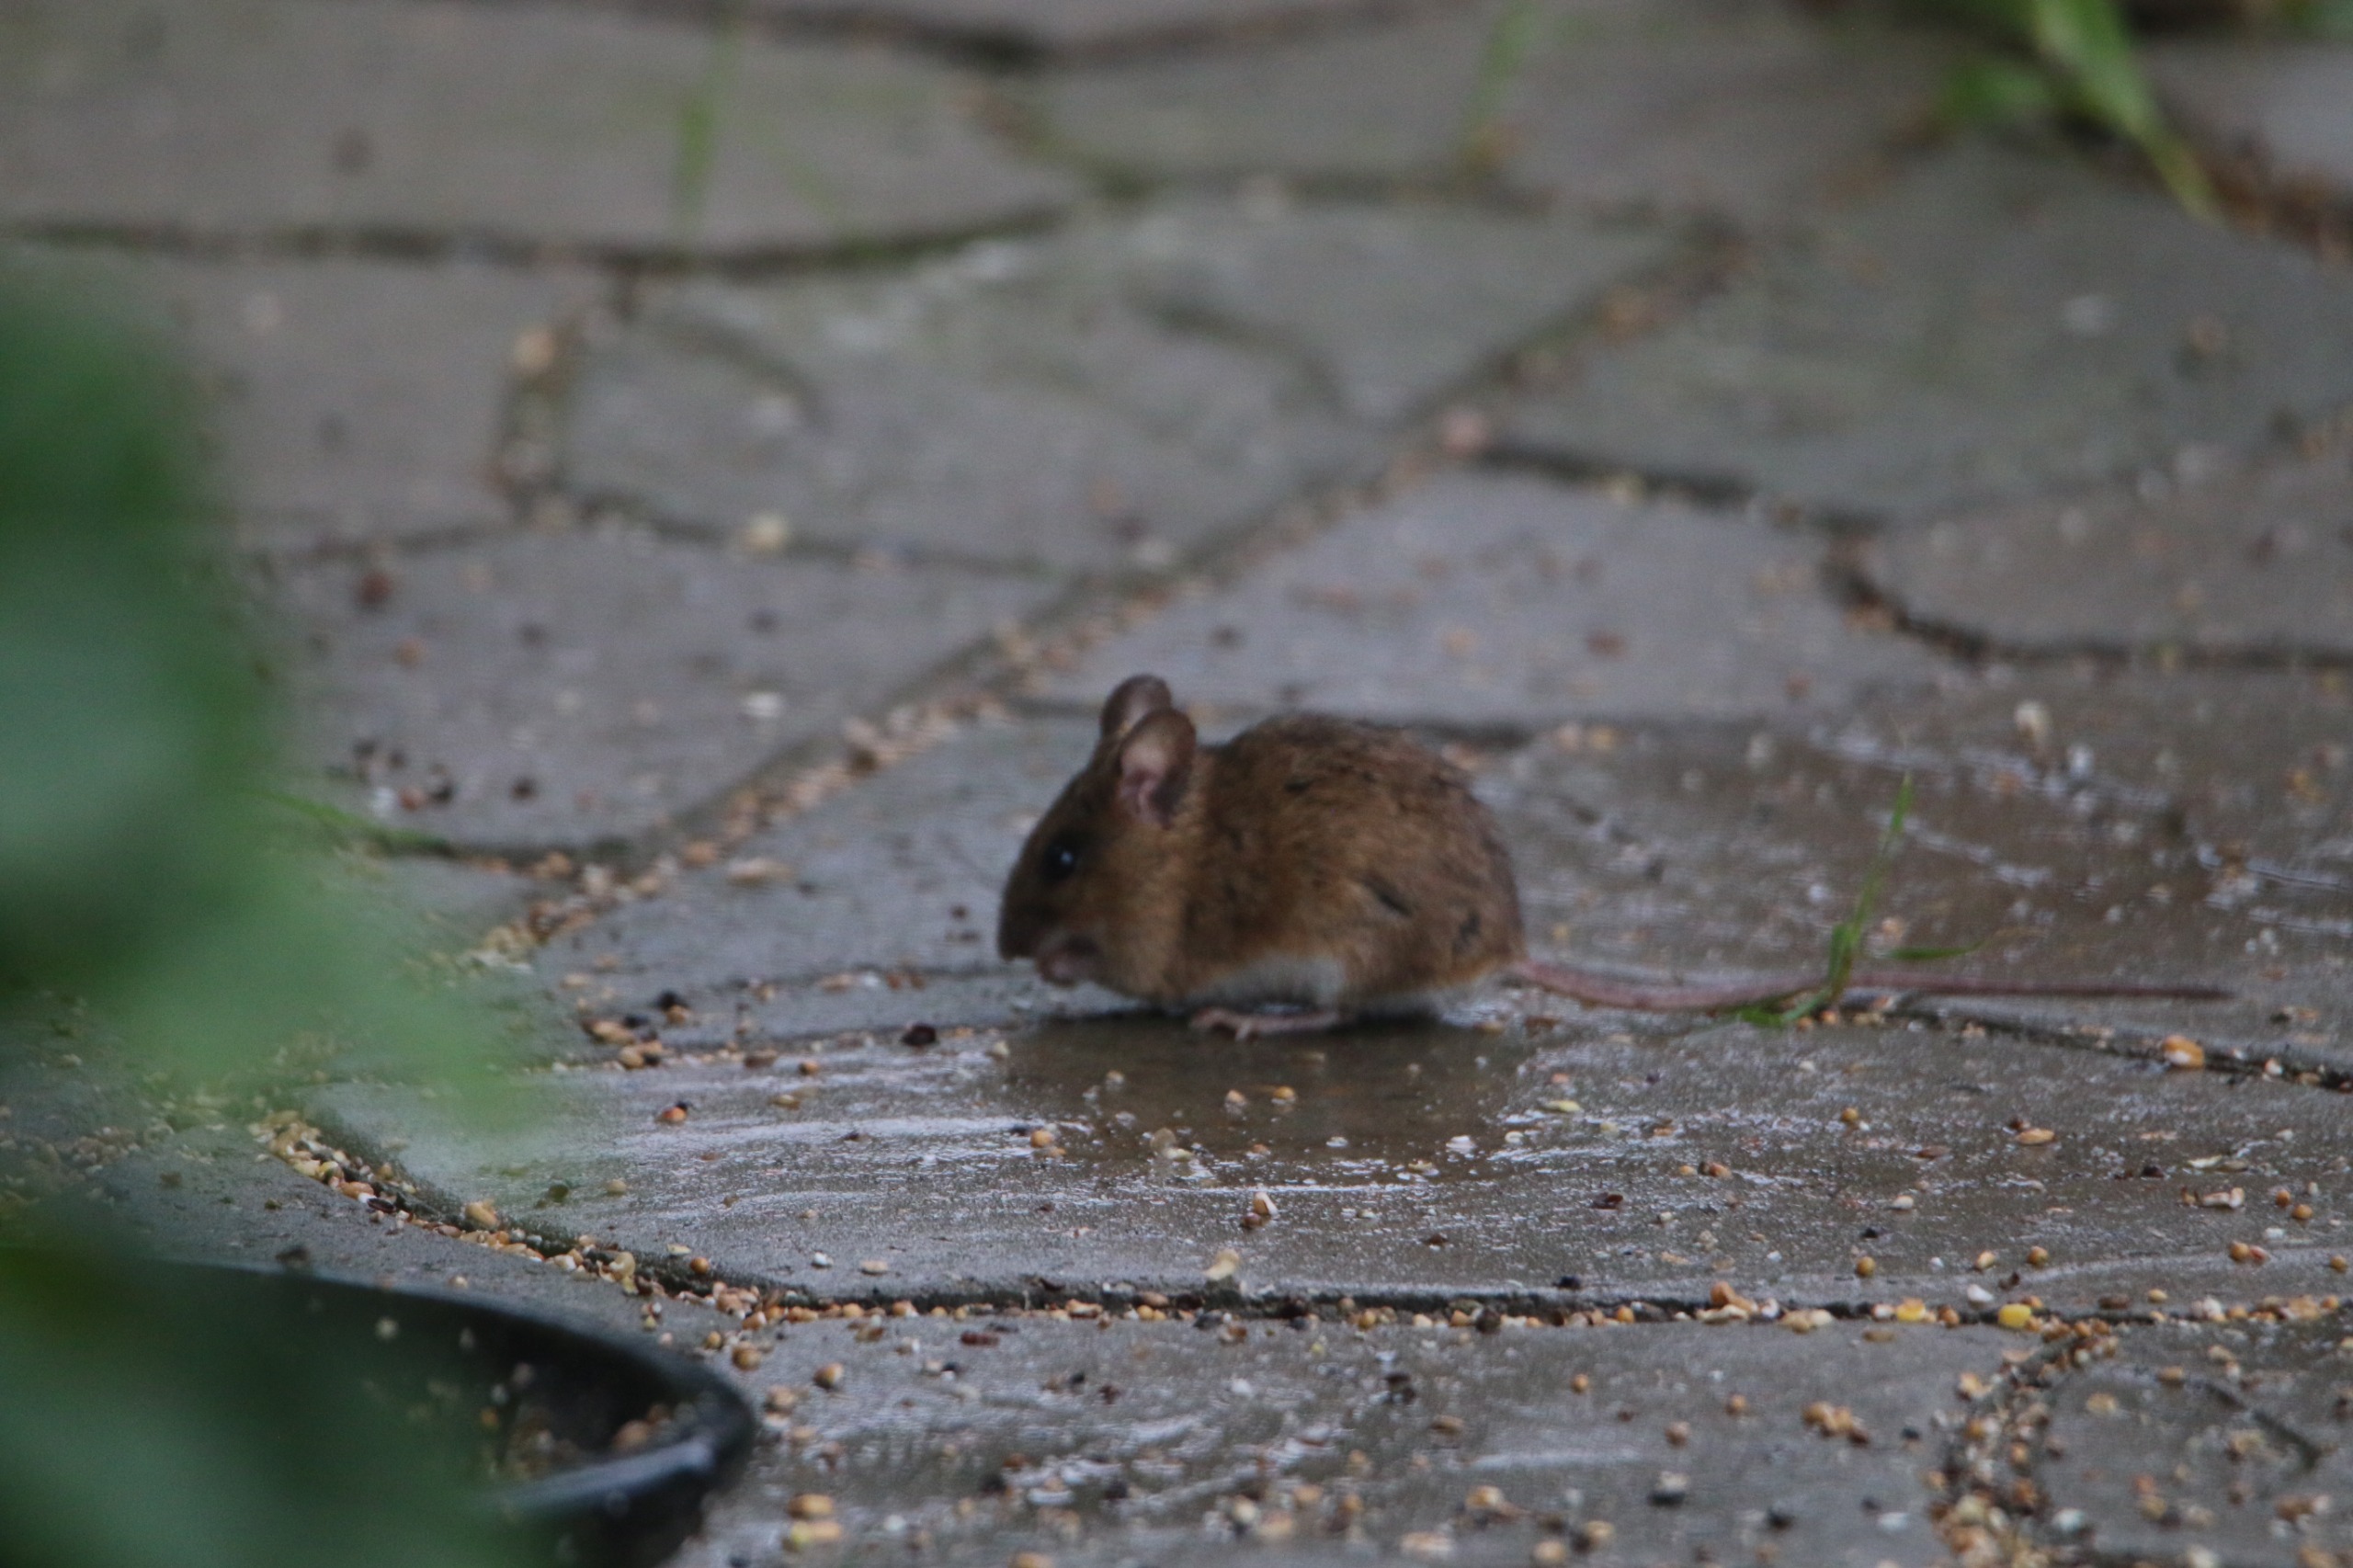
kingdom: Animalia
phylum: Chordata
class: Mammalia
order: Rodentia
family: Muridae
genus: Apodemus
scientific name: Apodemus flavicollis
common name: Halsbåndmus
